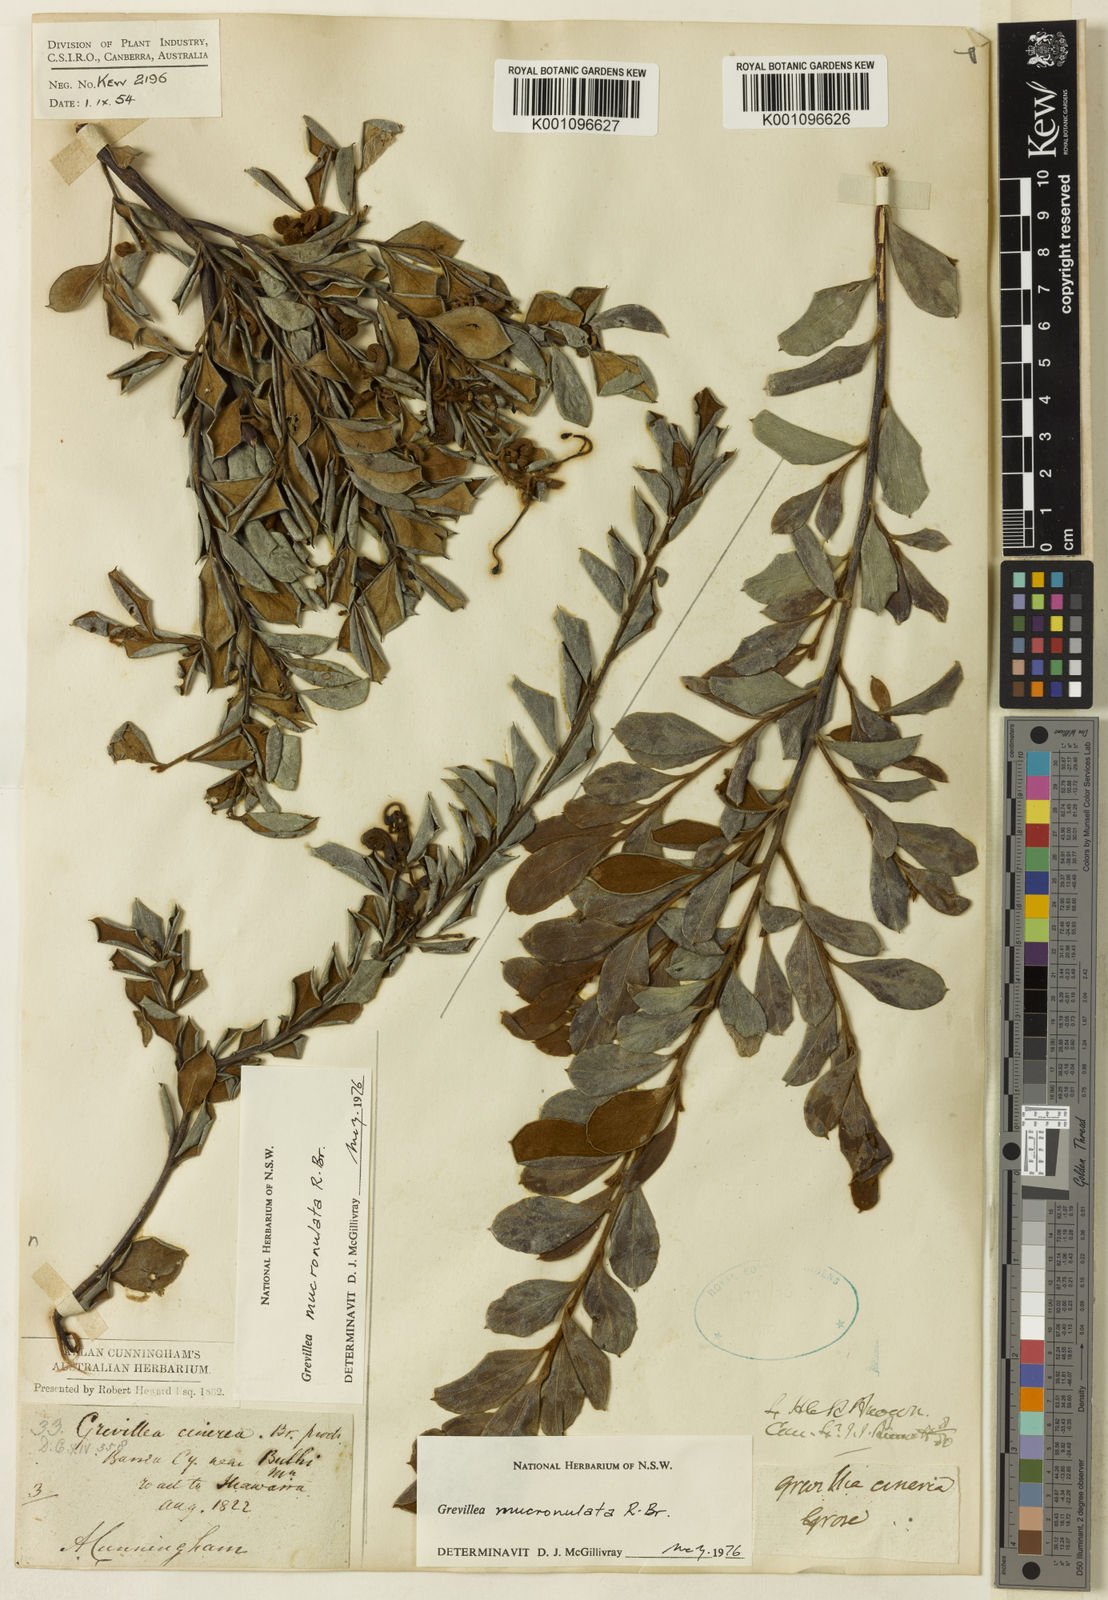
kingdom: Plantae
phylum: Tracheophyta
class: Magnoliopsida
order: Proteales
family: Proteaceae
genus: Grevillea
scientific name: Grevillea mucronulata
